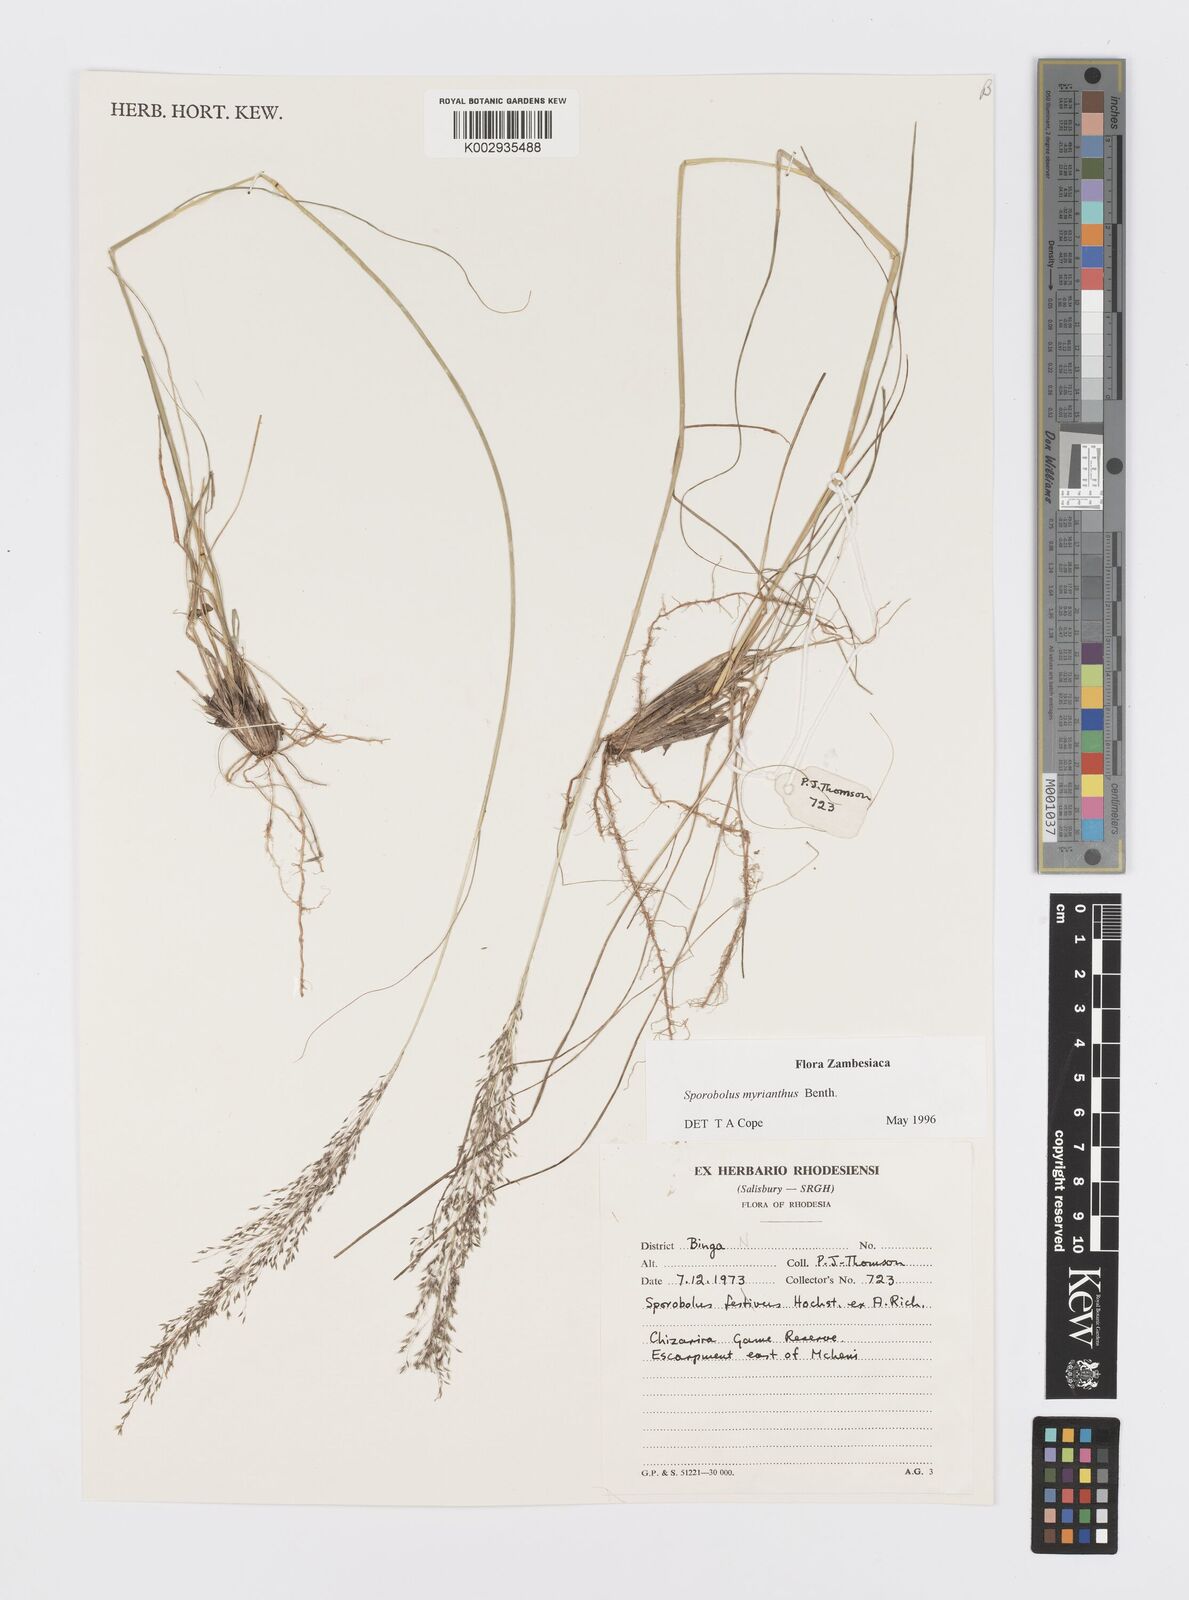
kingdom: Plantae
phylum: Tracheophyta
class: Liliopsida
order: Poales
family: Poaceae
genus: Sporobolus
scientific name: Sporobolus myrianthus
